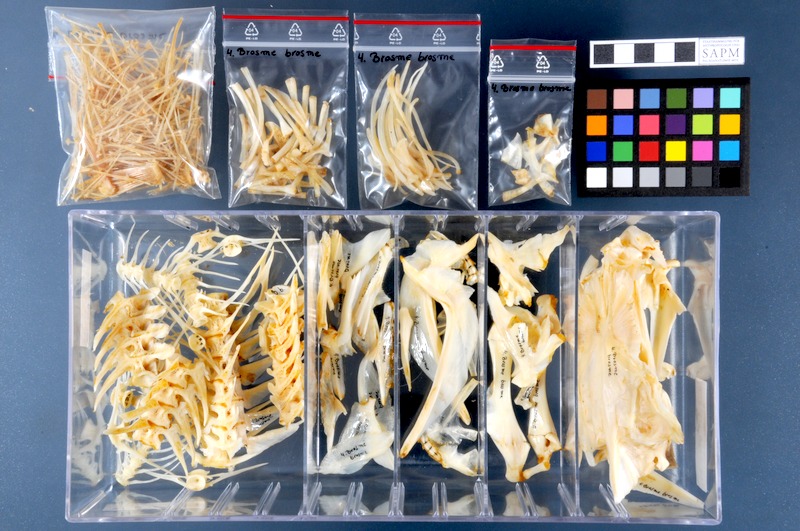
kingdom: Animalia
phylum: Chordata
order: Gadiformes
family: Lotidae
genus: Brosme
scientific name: Brosme brosme
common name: Cusk
